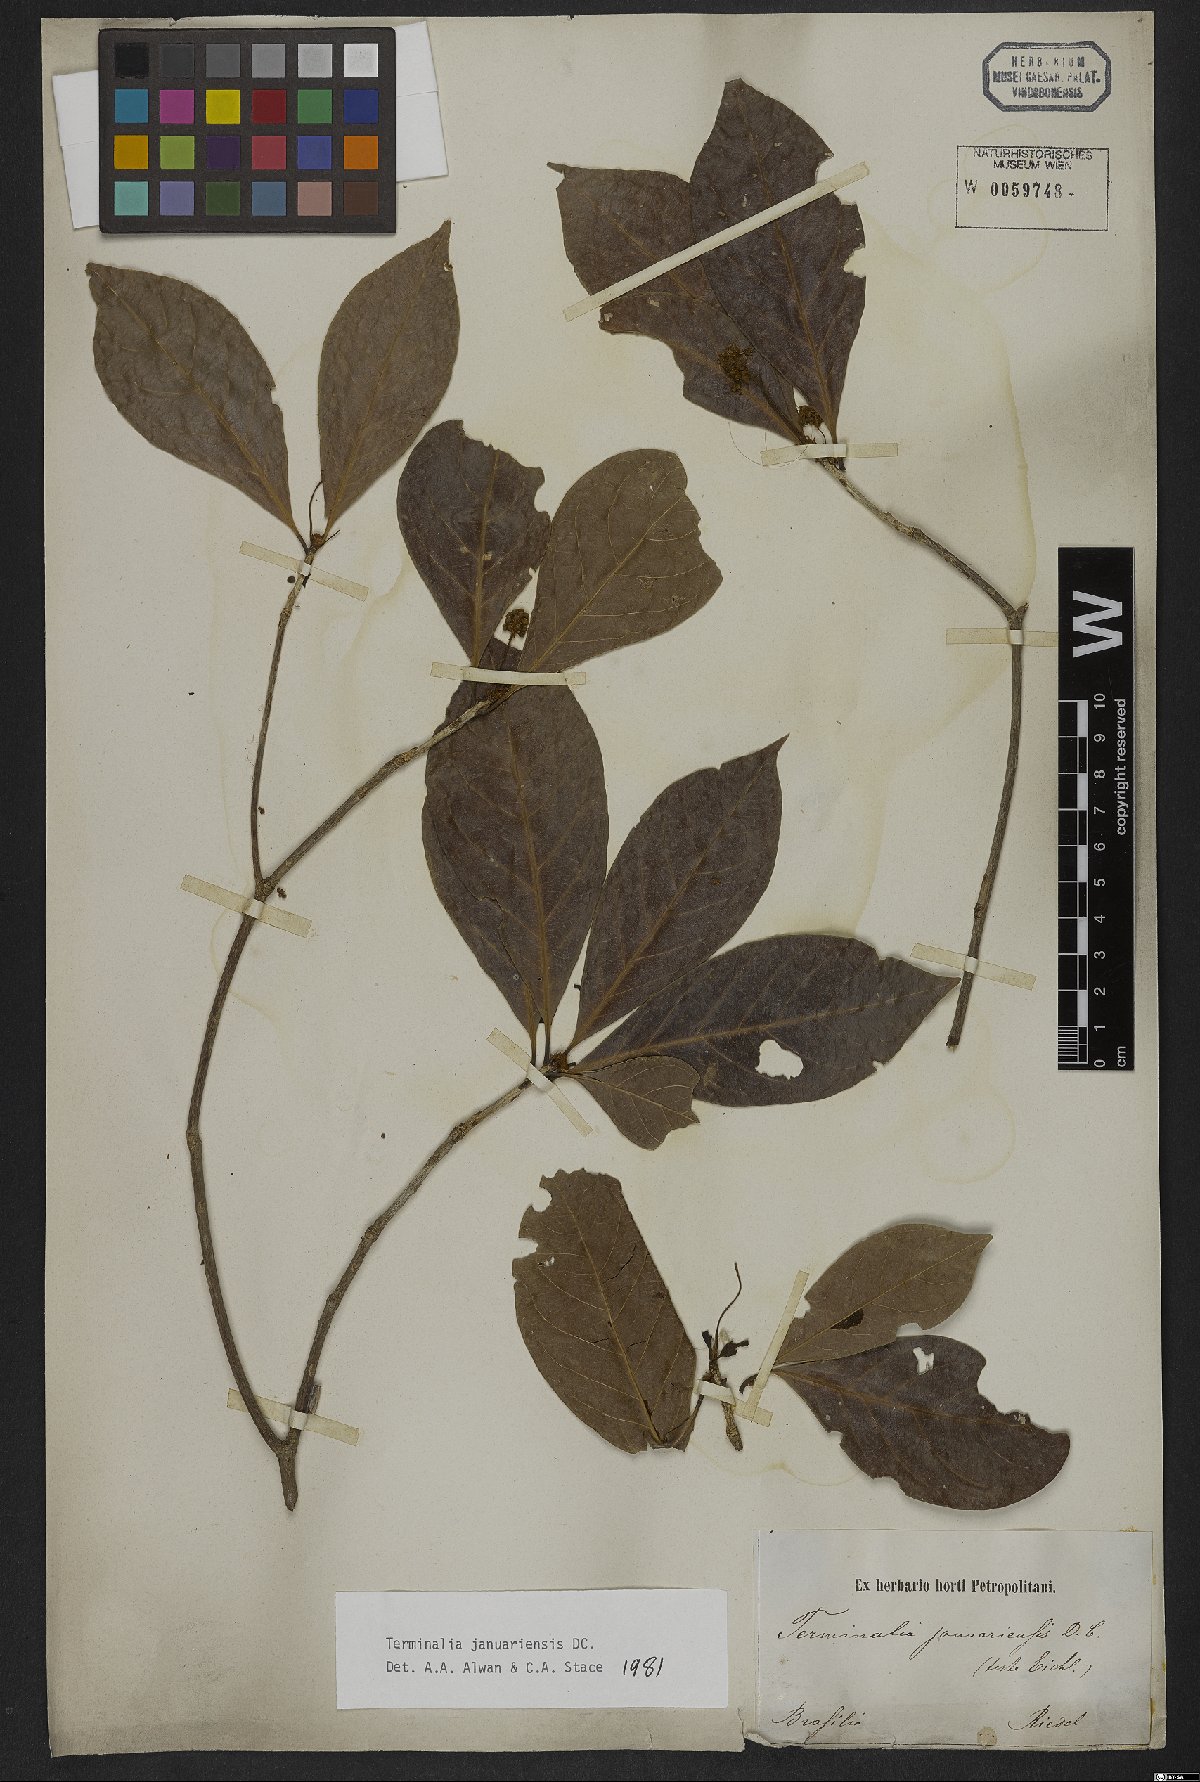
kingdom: Plantae
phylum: Tracheophyta
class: Magnoliopsida
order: Myrtales
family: Combretaceae
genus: Terminalia
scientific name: Terminalia januariensis
